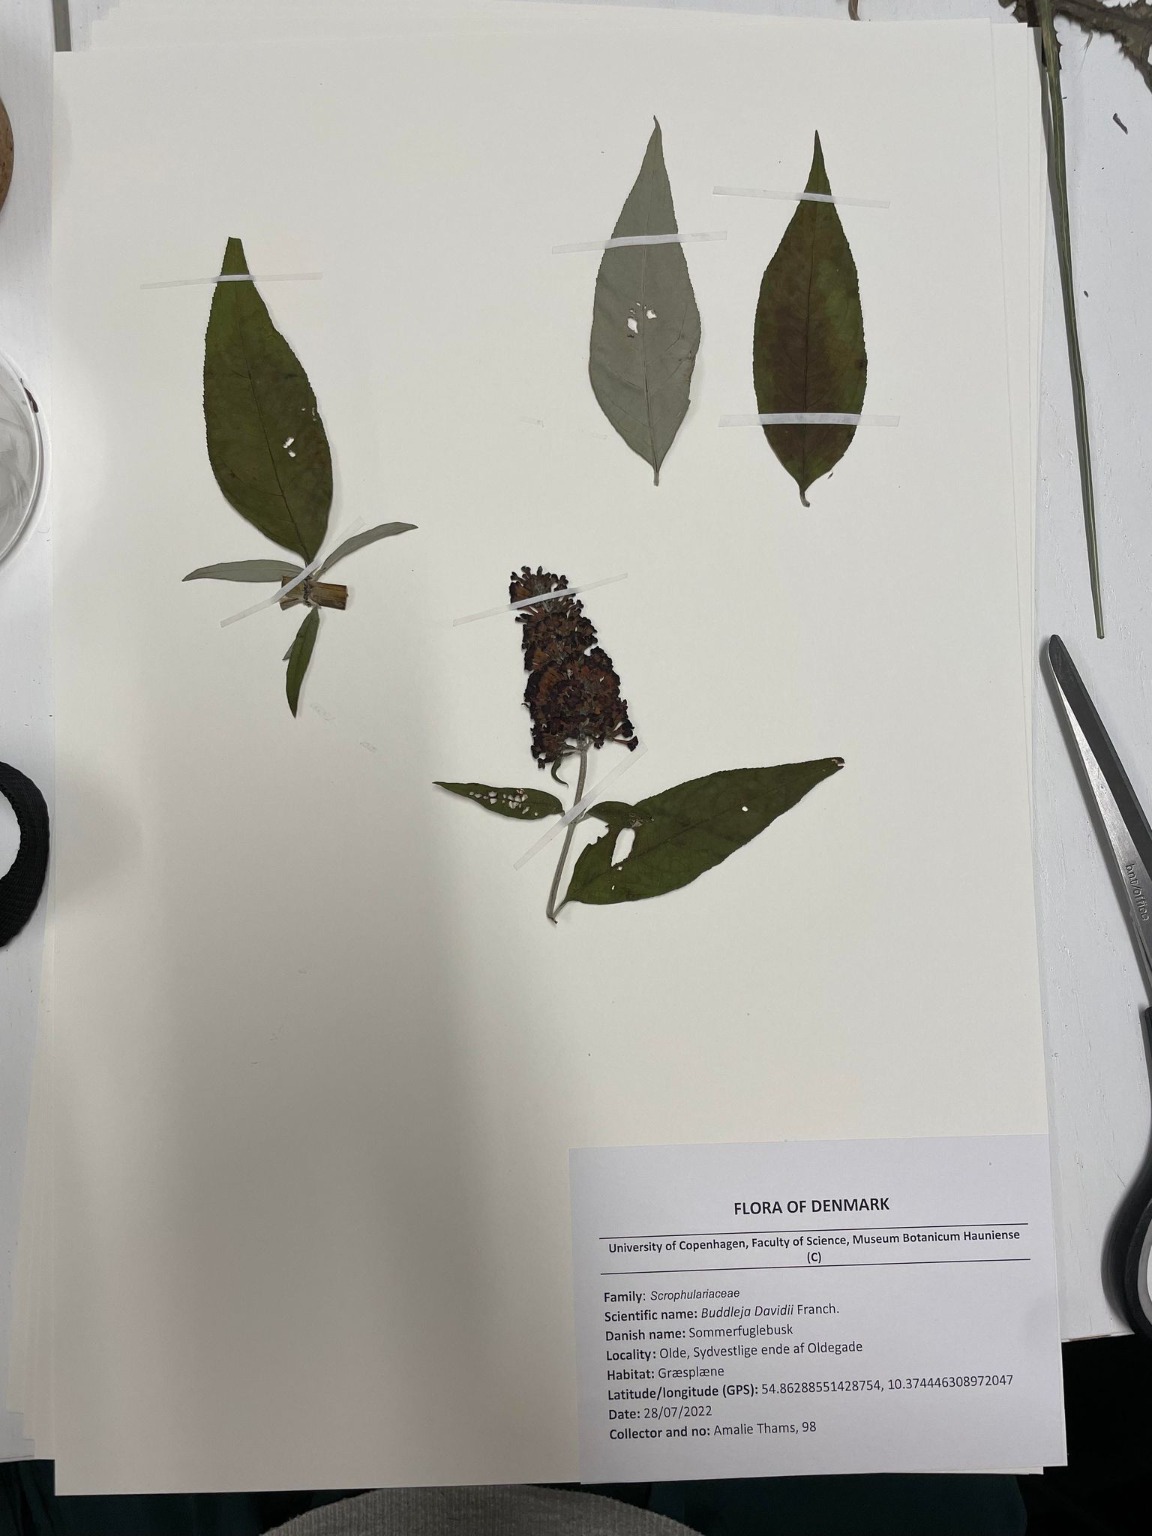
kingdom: Plantae
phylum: Tracheophyta
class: Magnoliopsida
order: Lamiales
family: Scrophulariaceae
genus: Buddleja
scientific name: Buddleja davidii
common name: Sommerfuglebusk
